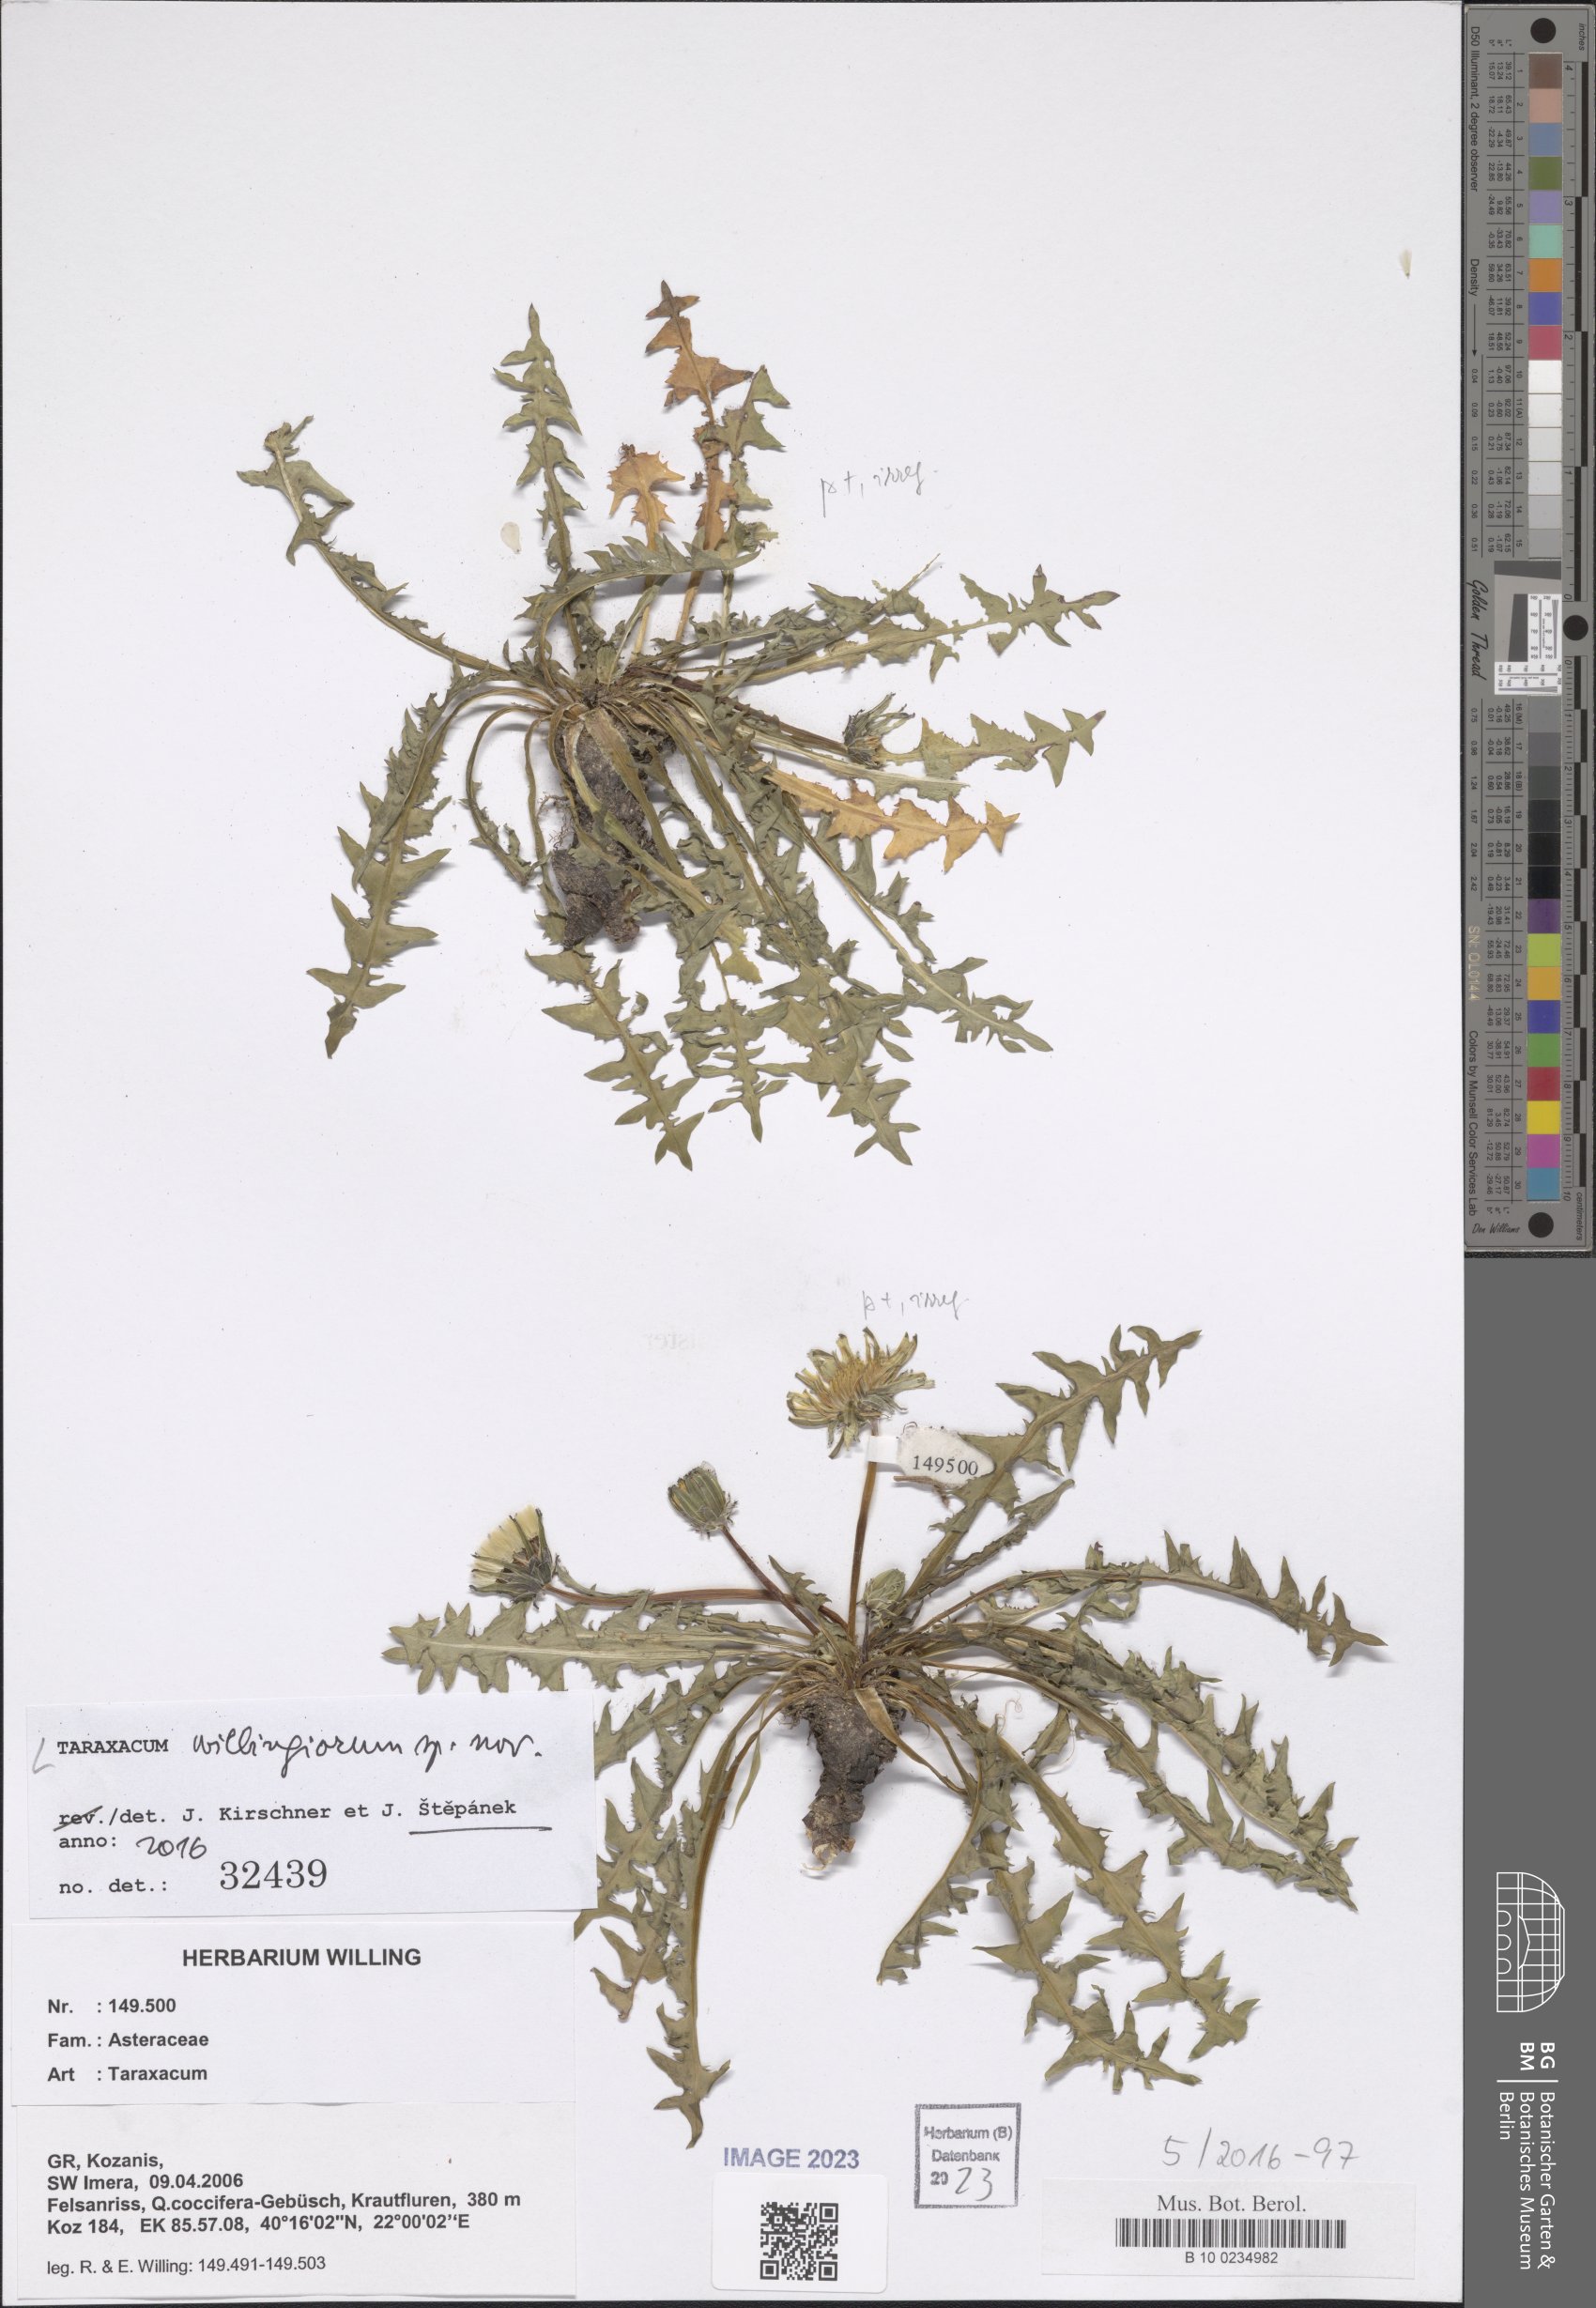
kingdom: Plantae
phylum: Tracheophyta
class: Magnoliopsida
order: Asterales
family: Asteraceae
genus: Taraxacum
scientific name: Taraxacum
